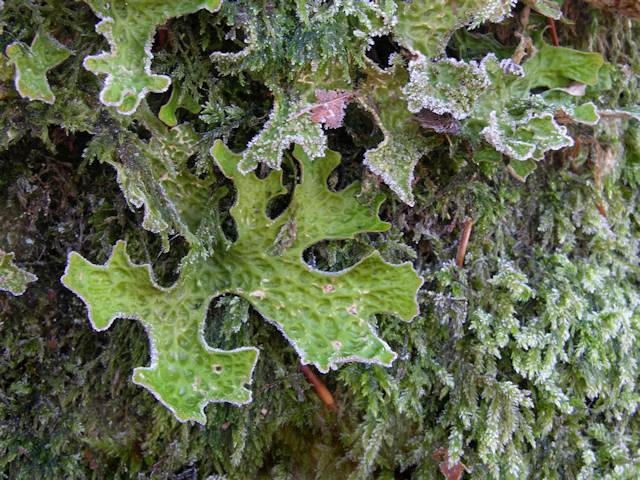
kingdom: Fungi
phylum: Ascomycota
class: Lecanoromycetes
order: Peltigerales
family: Lobariaceae
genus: Lobaria
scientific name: Lobaria pulmonaria
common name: almindelig lungelav
